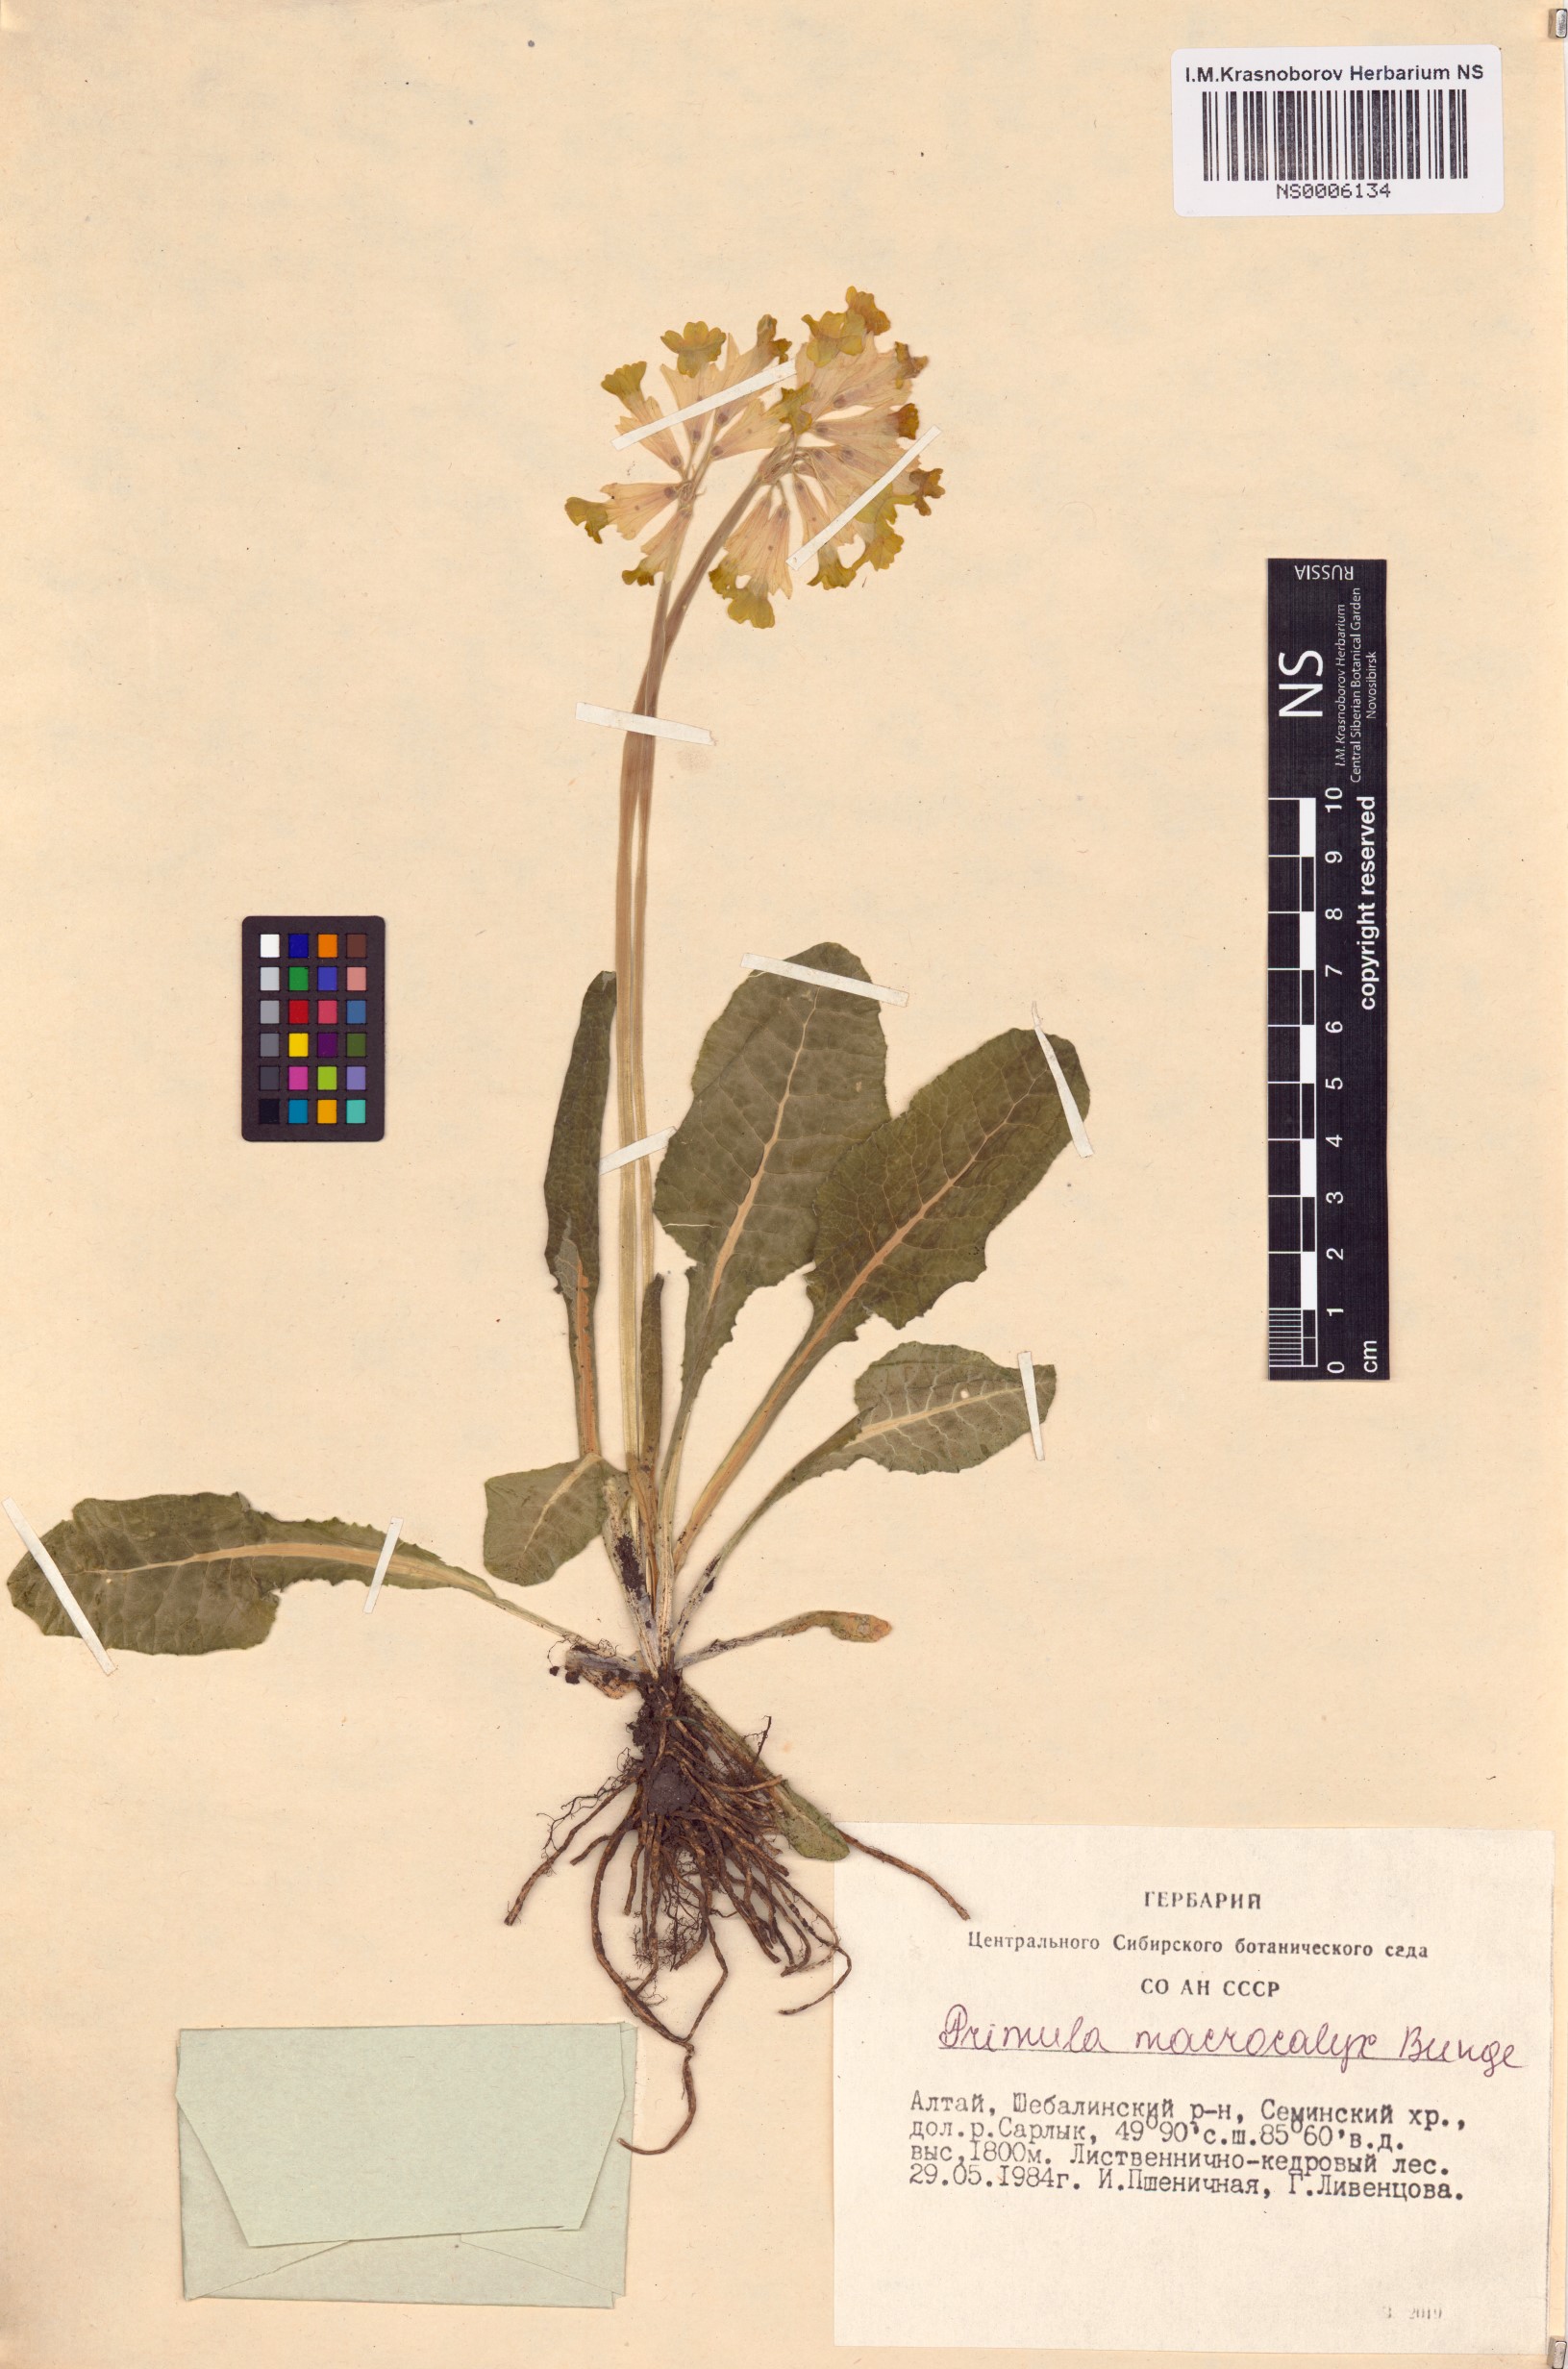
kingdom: Plantae
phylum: Tracheophyta
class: Magnoliopsida
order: Ericales
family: Primulaceae
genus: Primula
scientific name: Primula veris
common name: Cowslip
